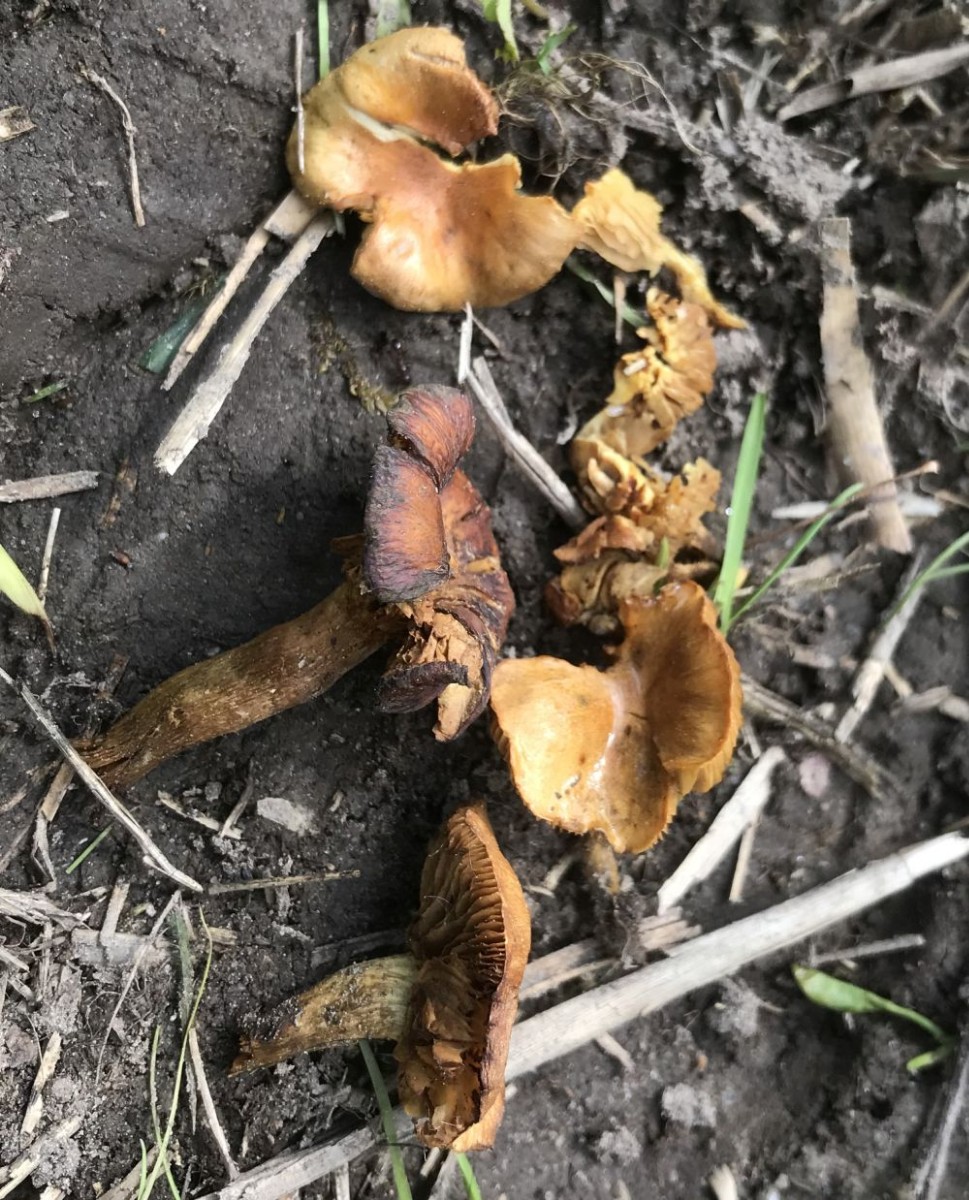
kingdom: Fungi
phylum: Basidiomycota
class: Agaricomycetes
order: Agaricales
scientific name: Agaricales
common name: champignonordenen
